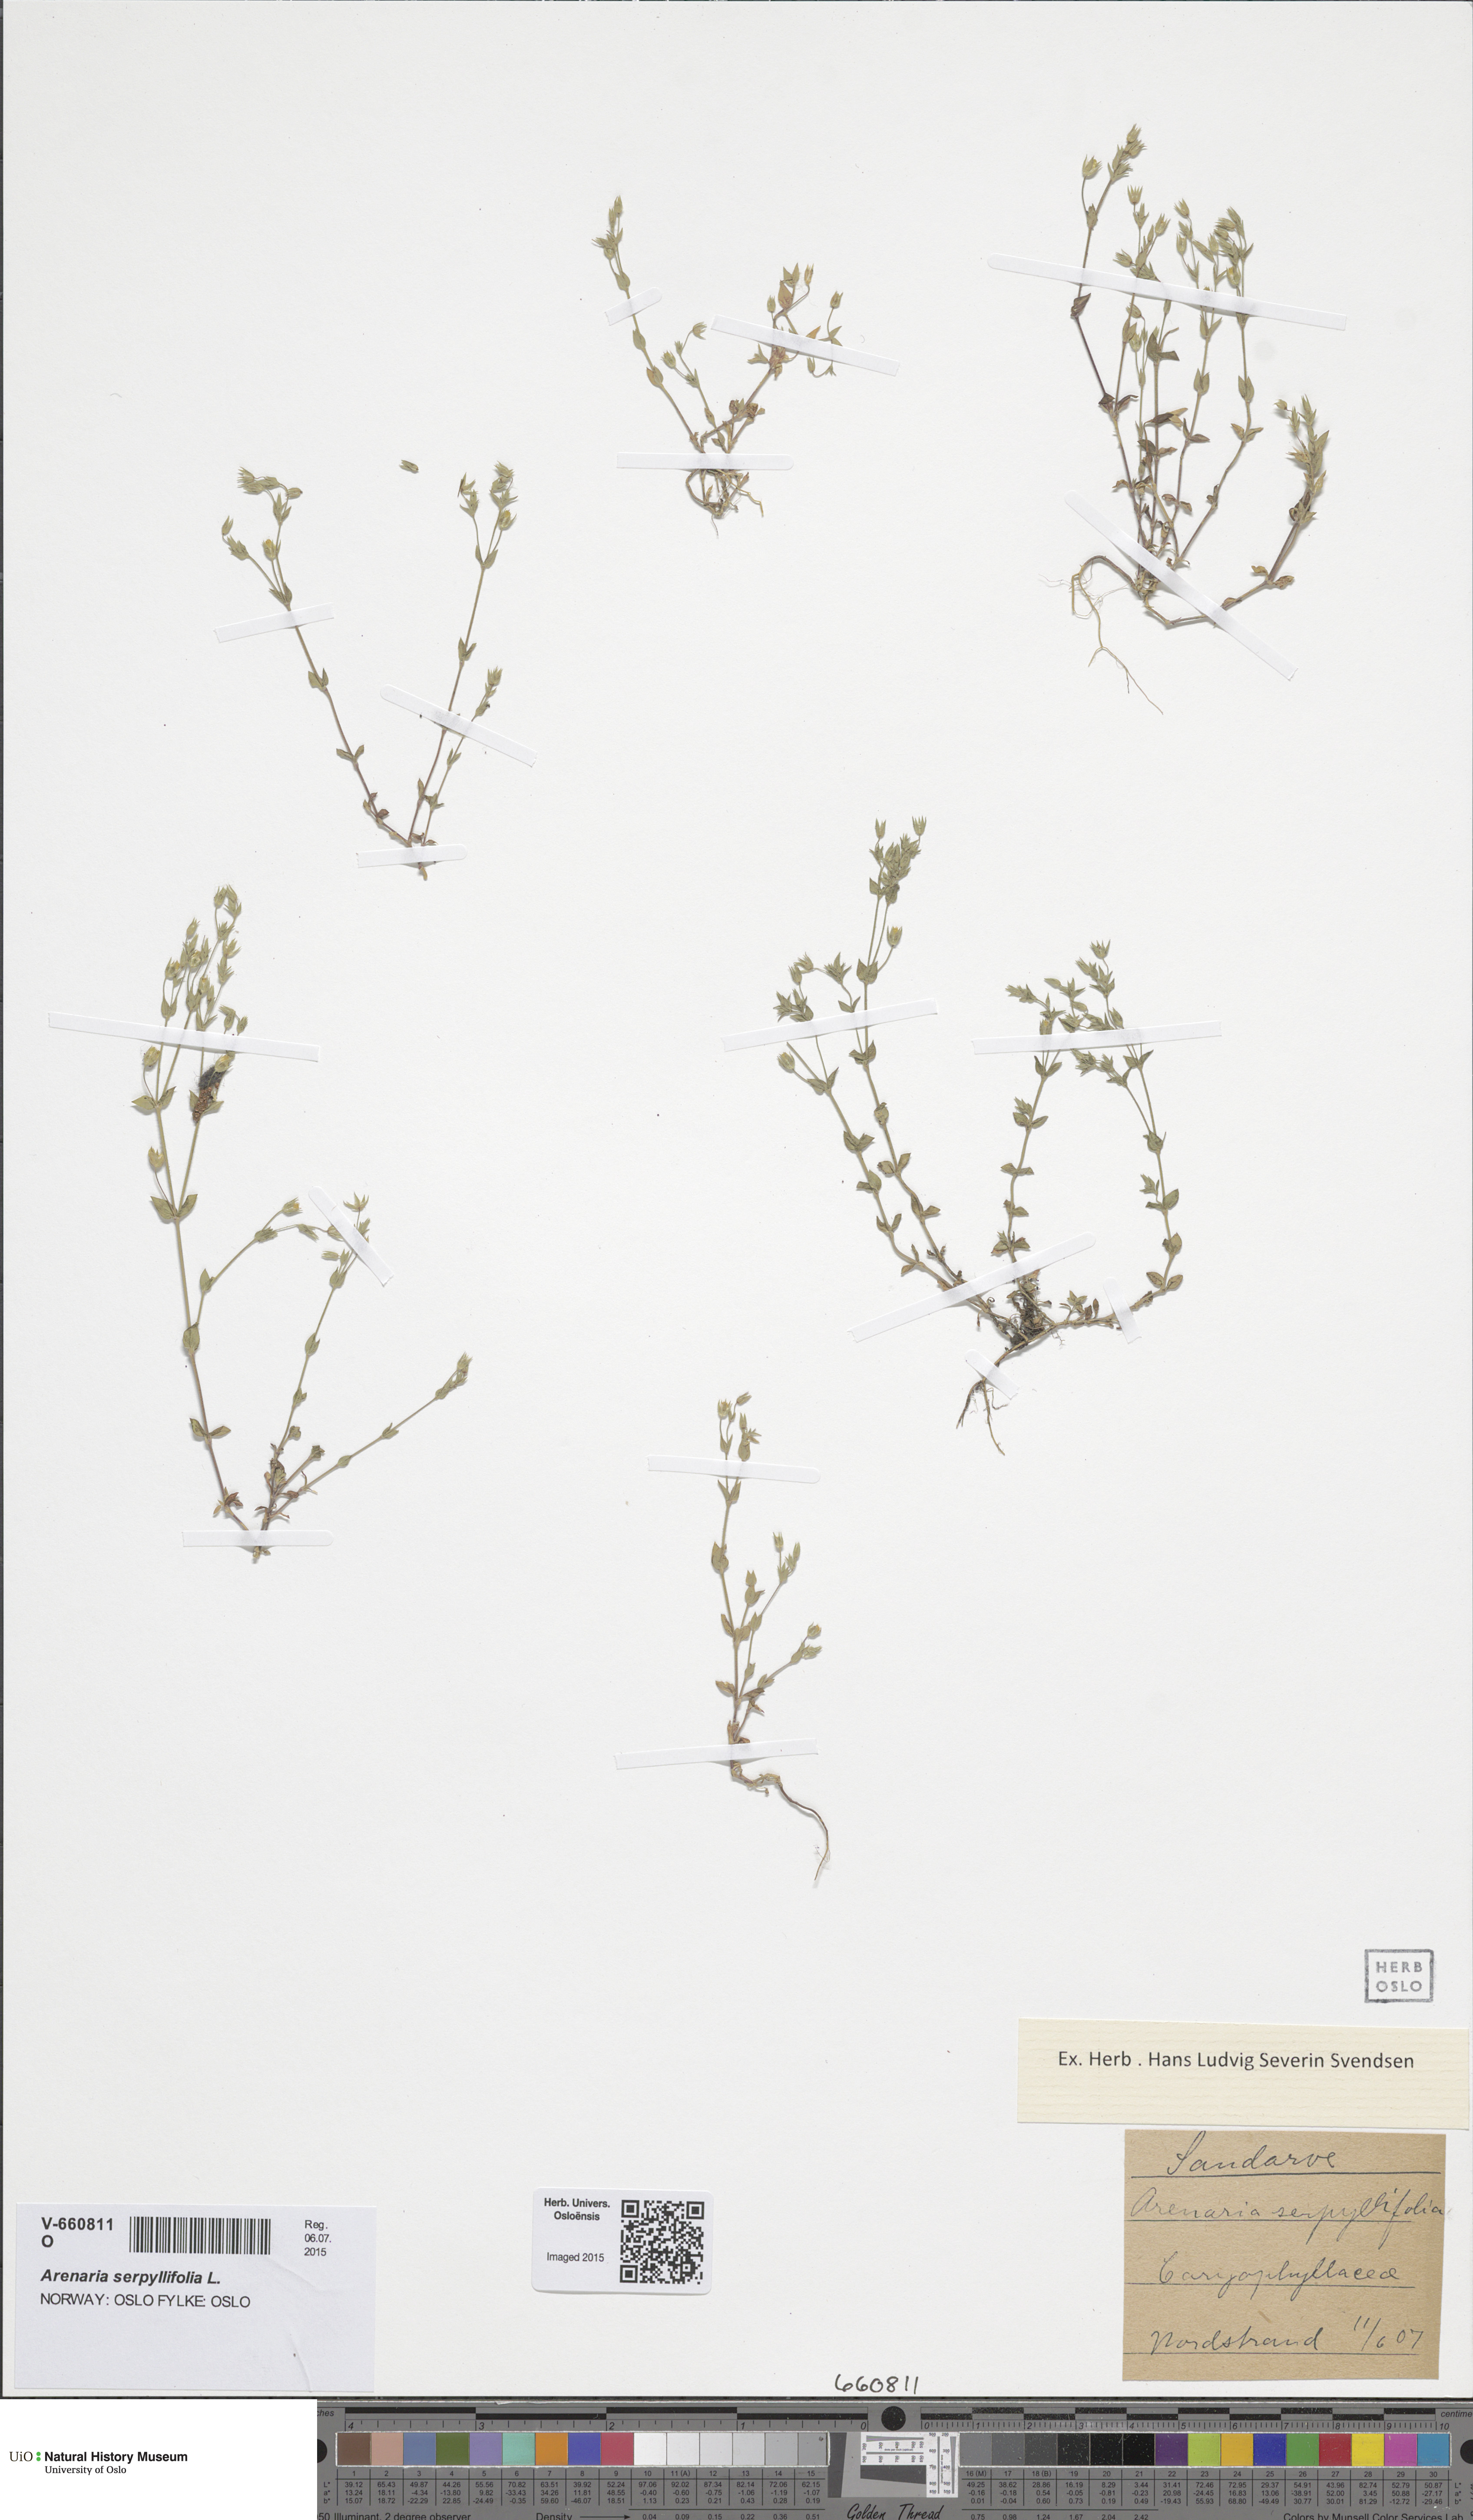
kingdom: Plantae
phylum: Tracheophyta
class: Magnoliopsida
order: Caryophyllales
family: Caryophyllaceae
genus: Arenaria
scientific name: Arenaria serpyllifolia
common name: Thyme-leaved sandwort
